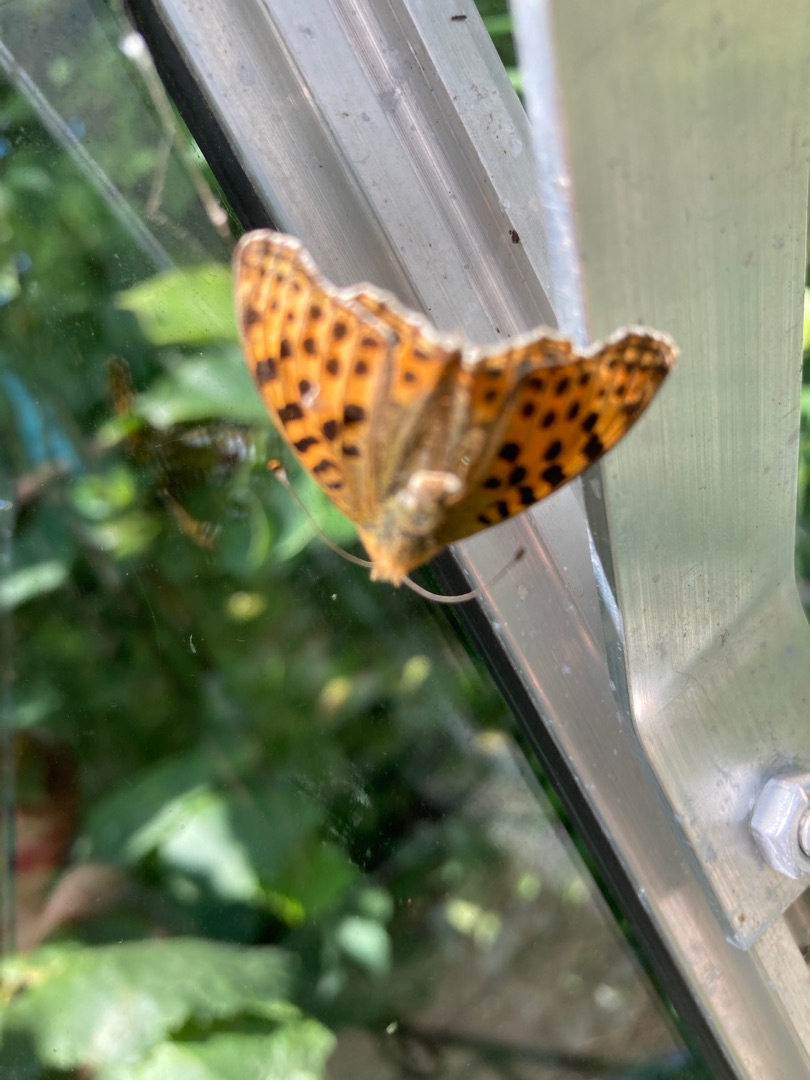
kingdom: Animalia
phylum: Arthropoda
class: Insecta
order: Lepidoptera
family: Nymphalidae
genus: Issoria
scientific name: Issoria lathonia
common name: Storplettet perlemorsommerfugl
